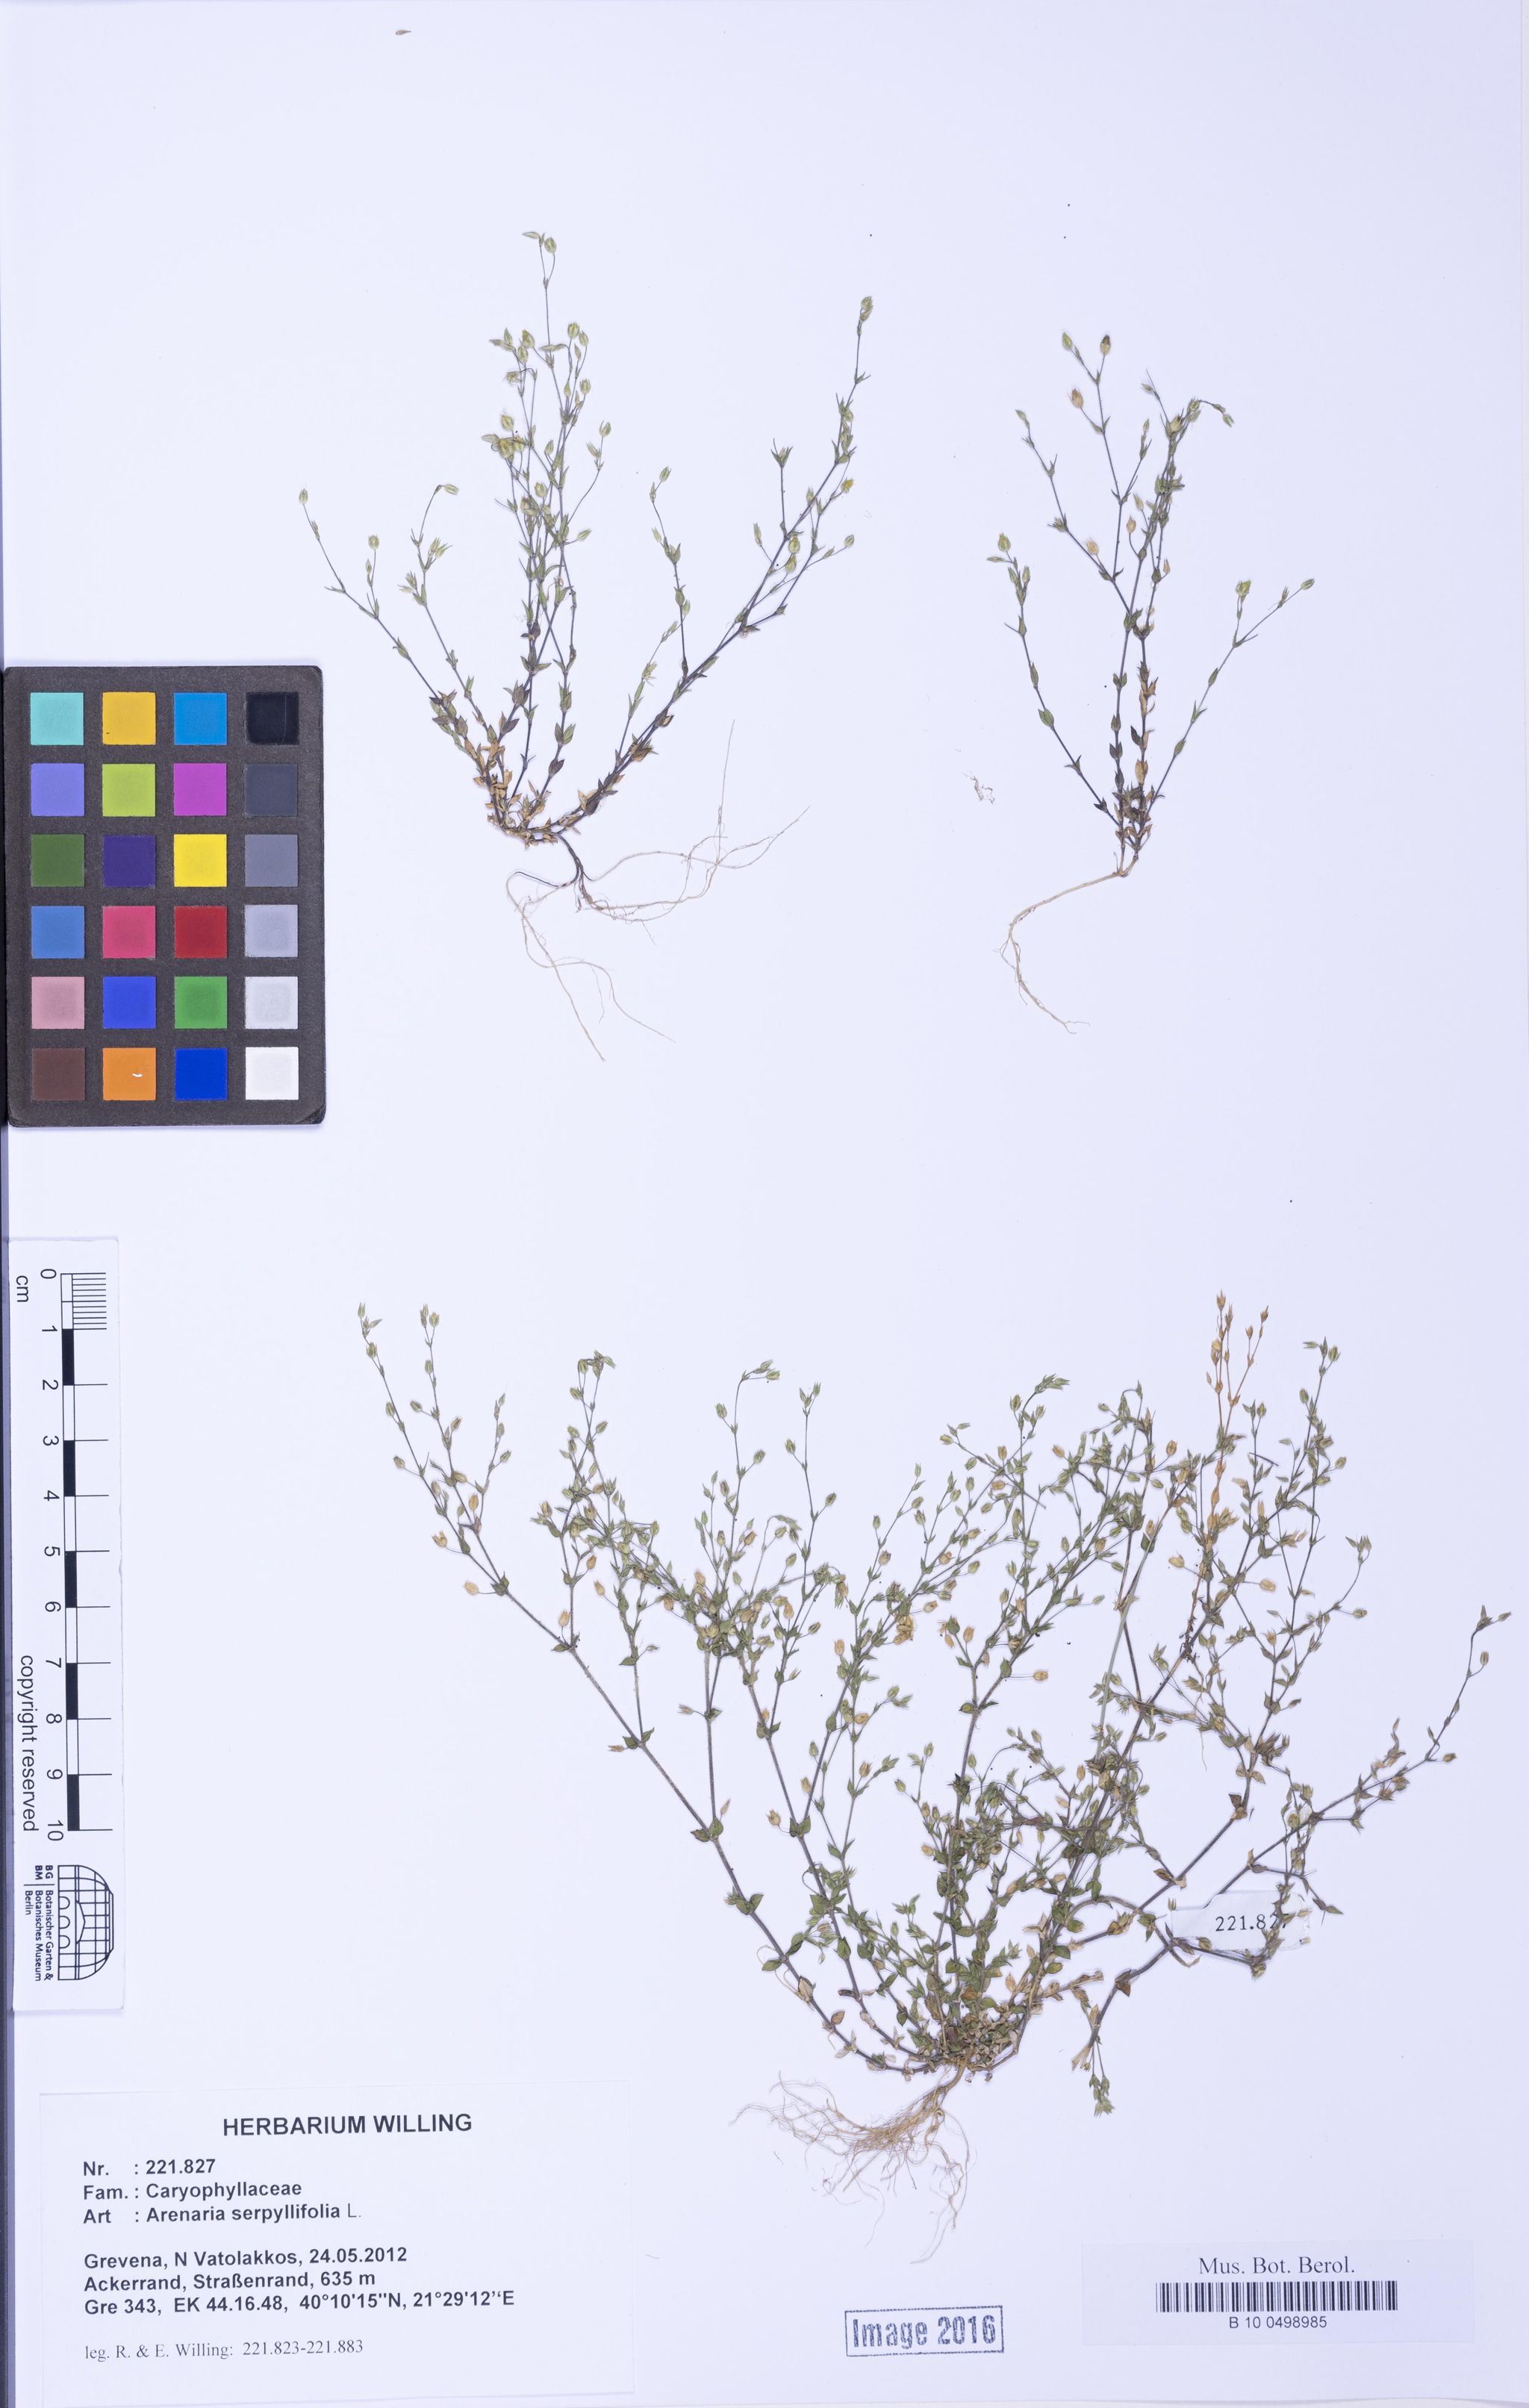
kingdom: Plantae
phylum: Tracheophyta
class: Magnoliopsida
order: Caryophyllales
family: Caryophyllaceae
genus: Arenaria
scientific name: Arenaria serpyllifolia
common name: Thyme-leaved sandwort
